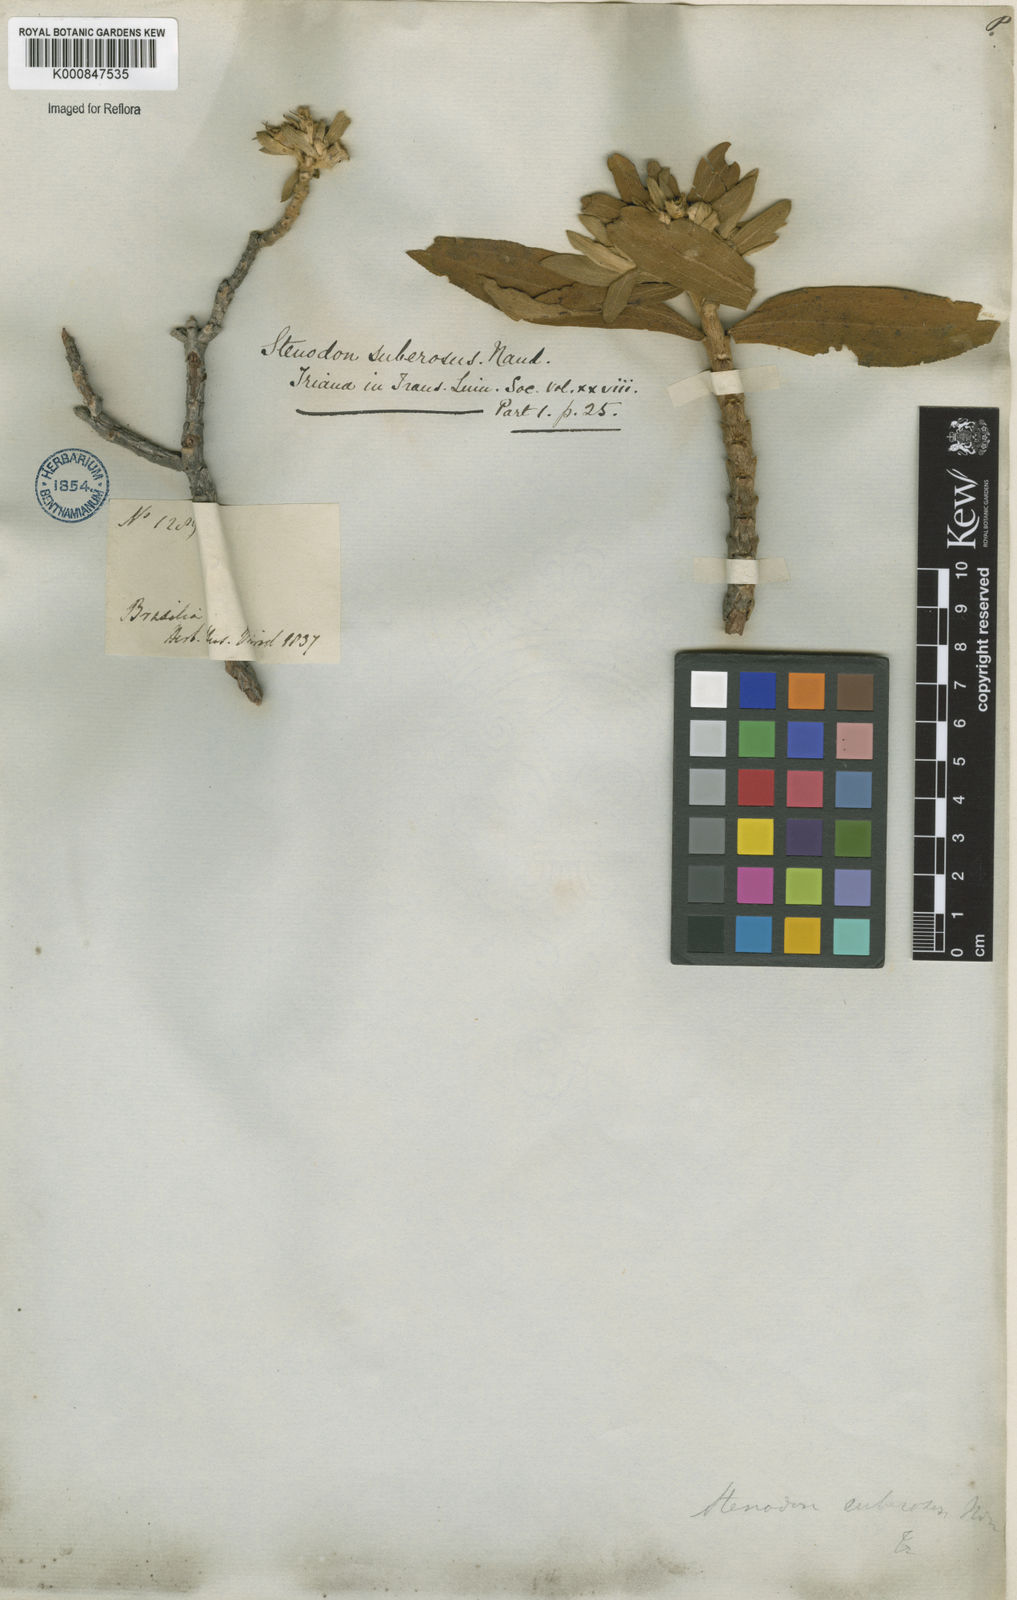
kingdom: Plantae
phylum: Tracheophyta
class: Magnoliopsida
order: Myrtales
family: Melastomataceae
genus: Microlicia
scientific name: Microlicia suberosa
